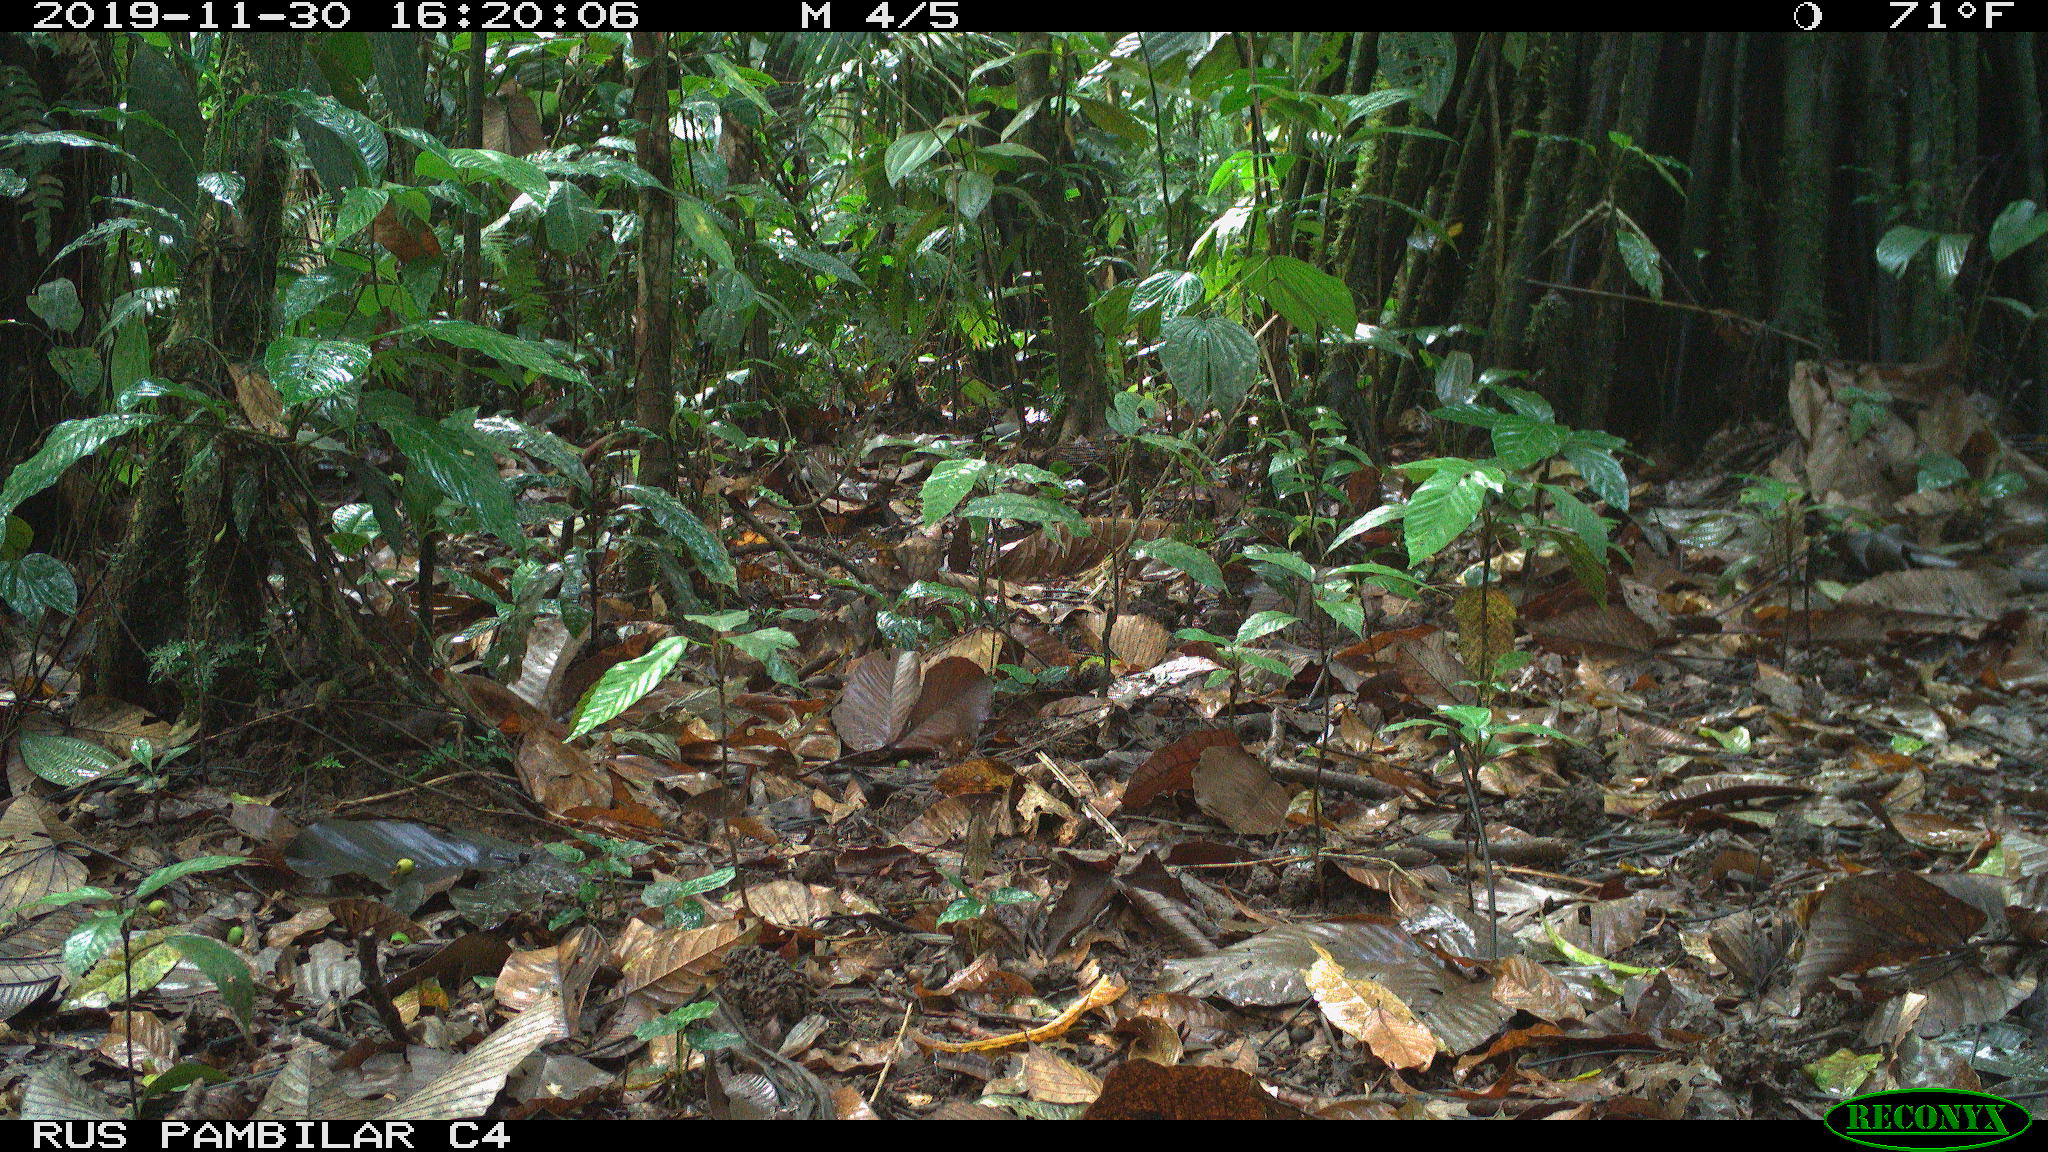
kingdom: Animalia
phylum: Chordata
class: Mammalia
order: Rodentia
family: Dasyproctidae
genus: Dasyprocta
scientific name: Dasyprocta punctata
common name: Central american agouti
